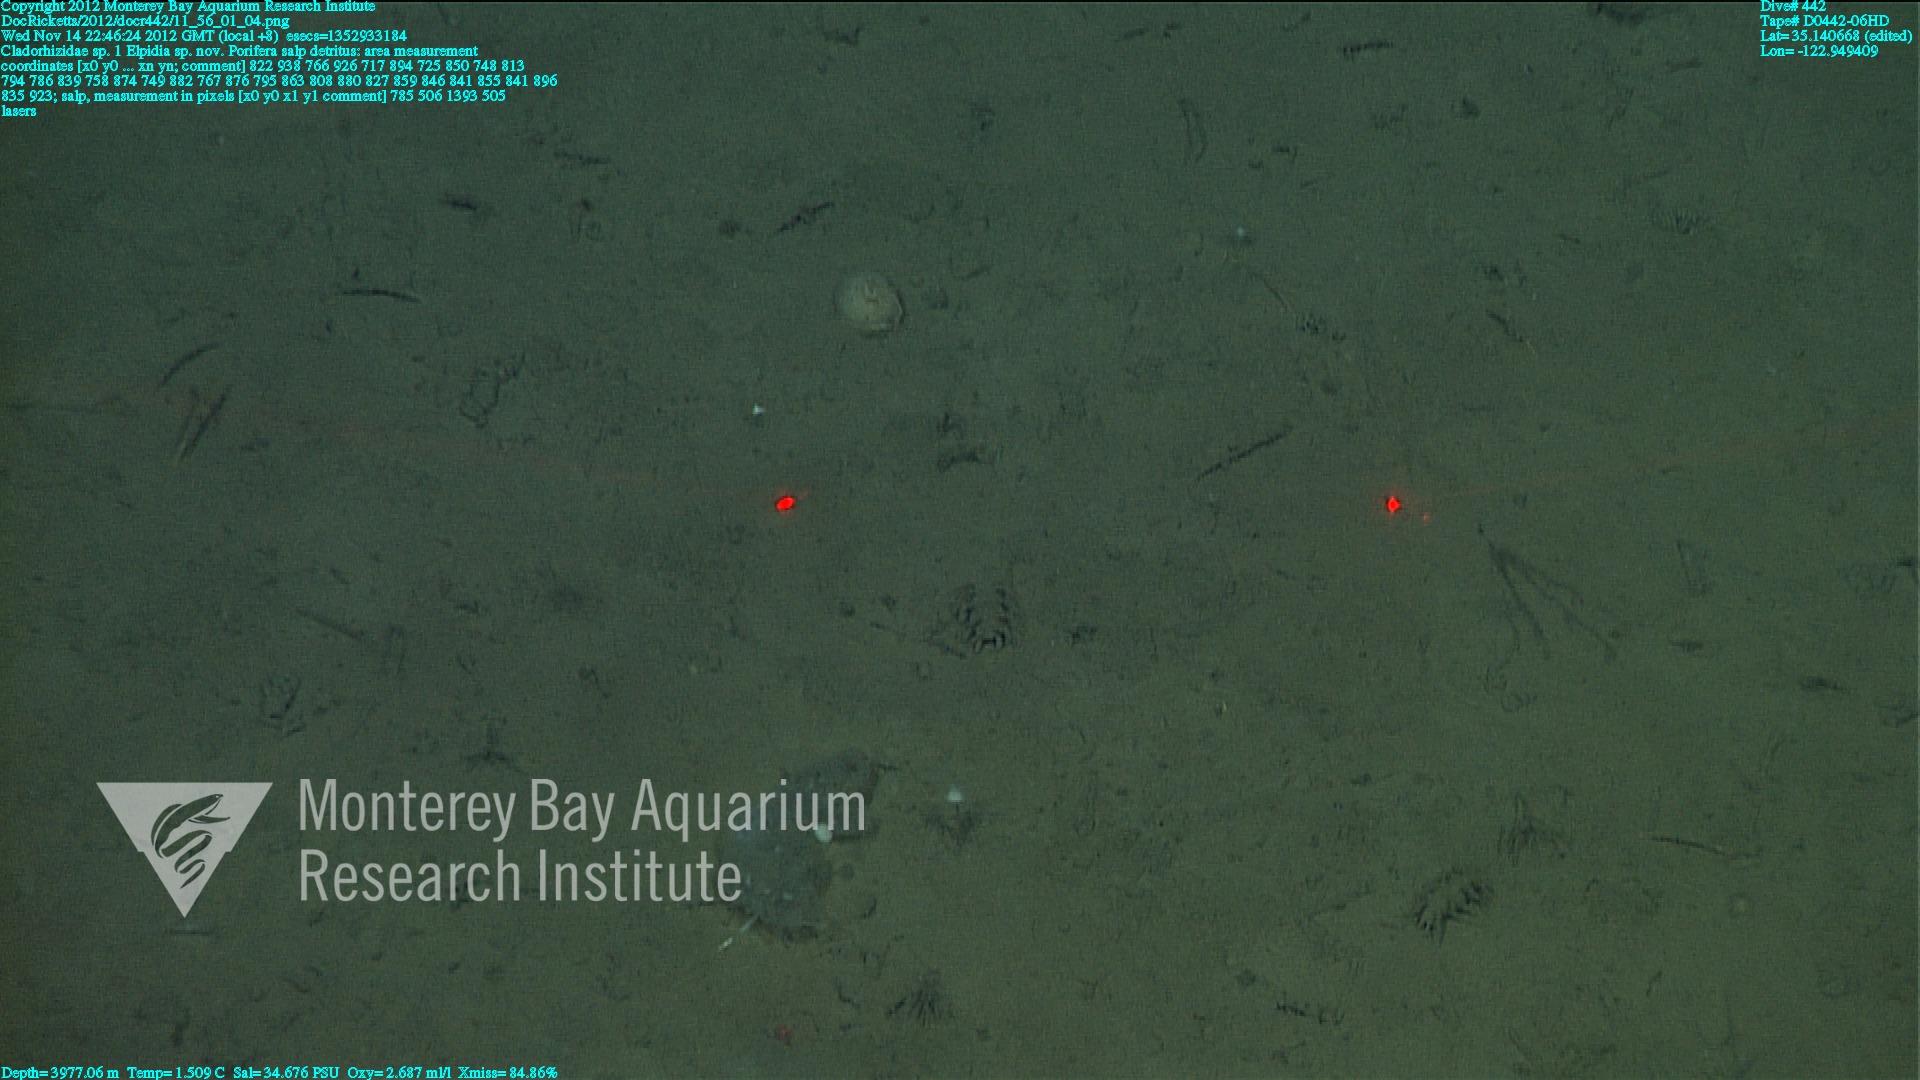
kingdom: Animalia
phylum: Porifera
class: Demospongiae
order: Poecilosclerida
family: Cladorhizidae
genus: Cladorhiza
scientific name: Cladorhiza
